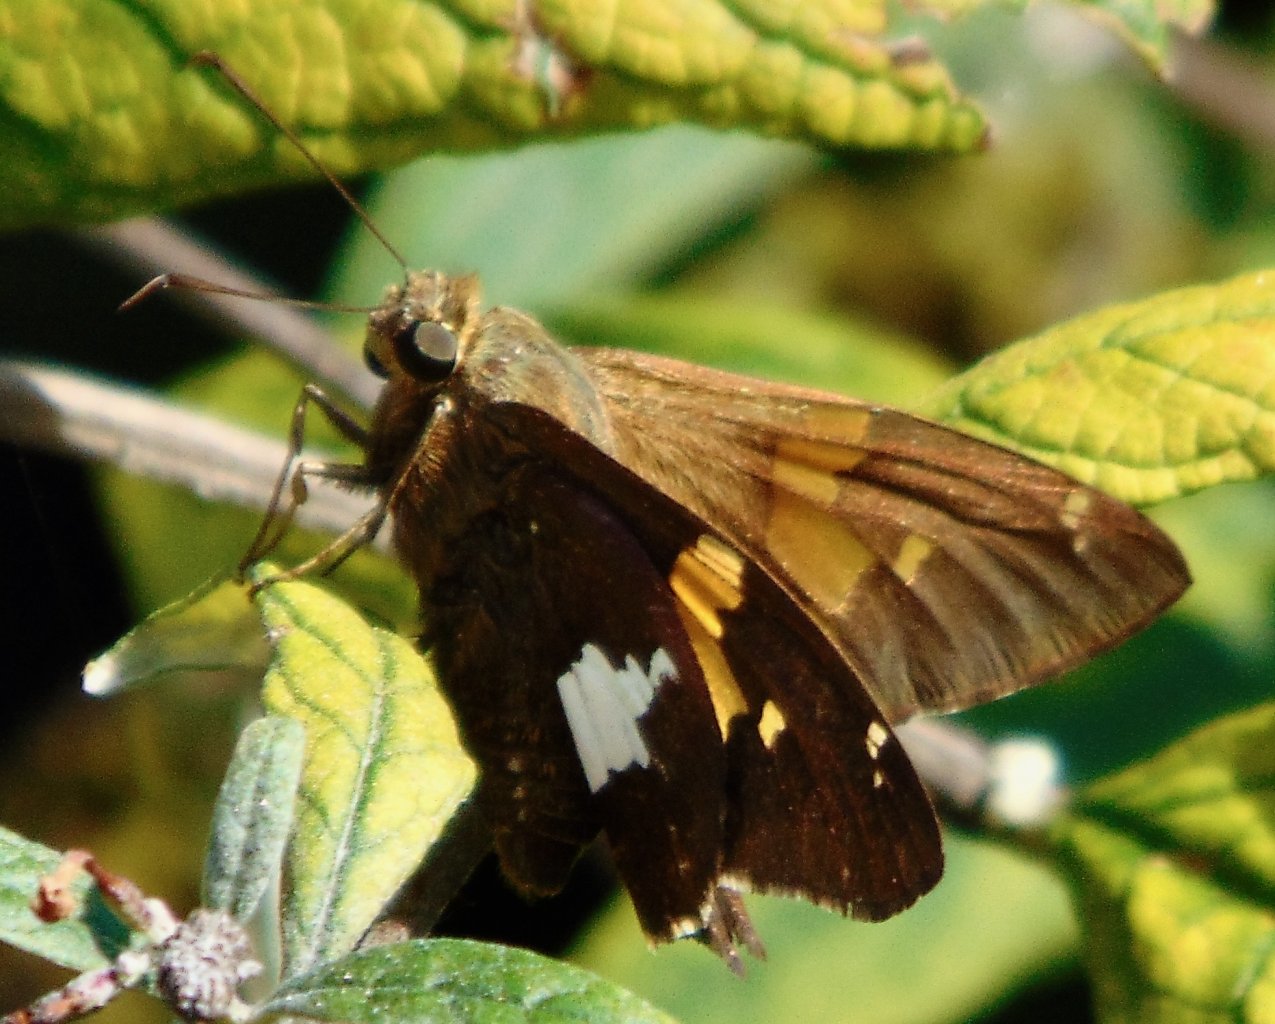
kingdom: Animalia
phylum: Arthropoda
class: Insecta
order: Lepidoptera
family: Hesperiidae
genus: Epargyreus
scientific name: Epargyreus clarus
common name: Silver-spotted Skipper
